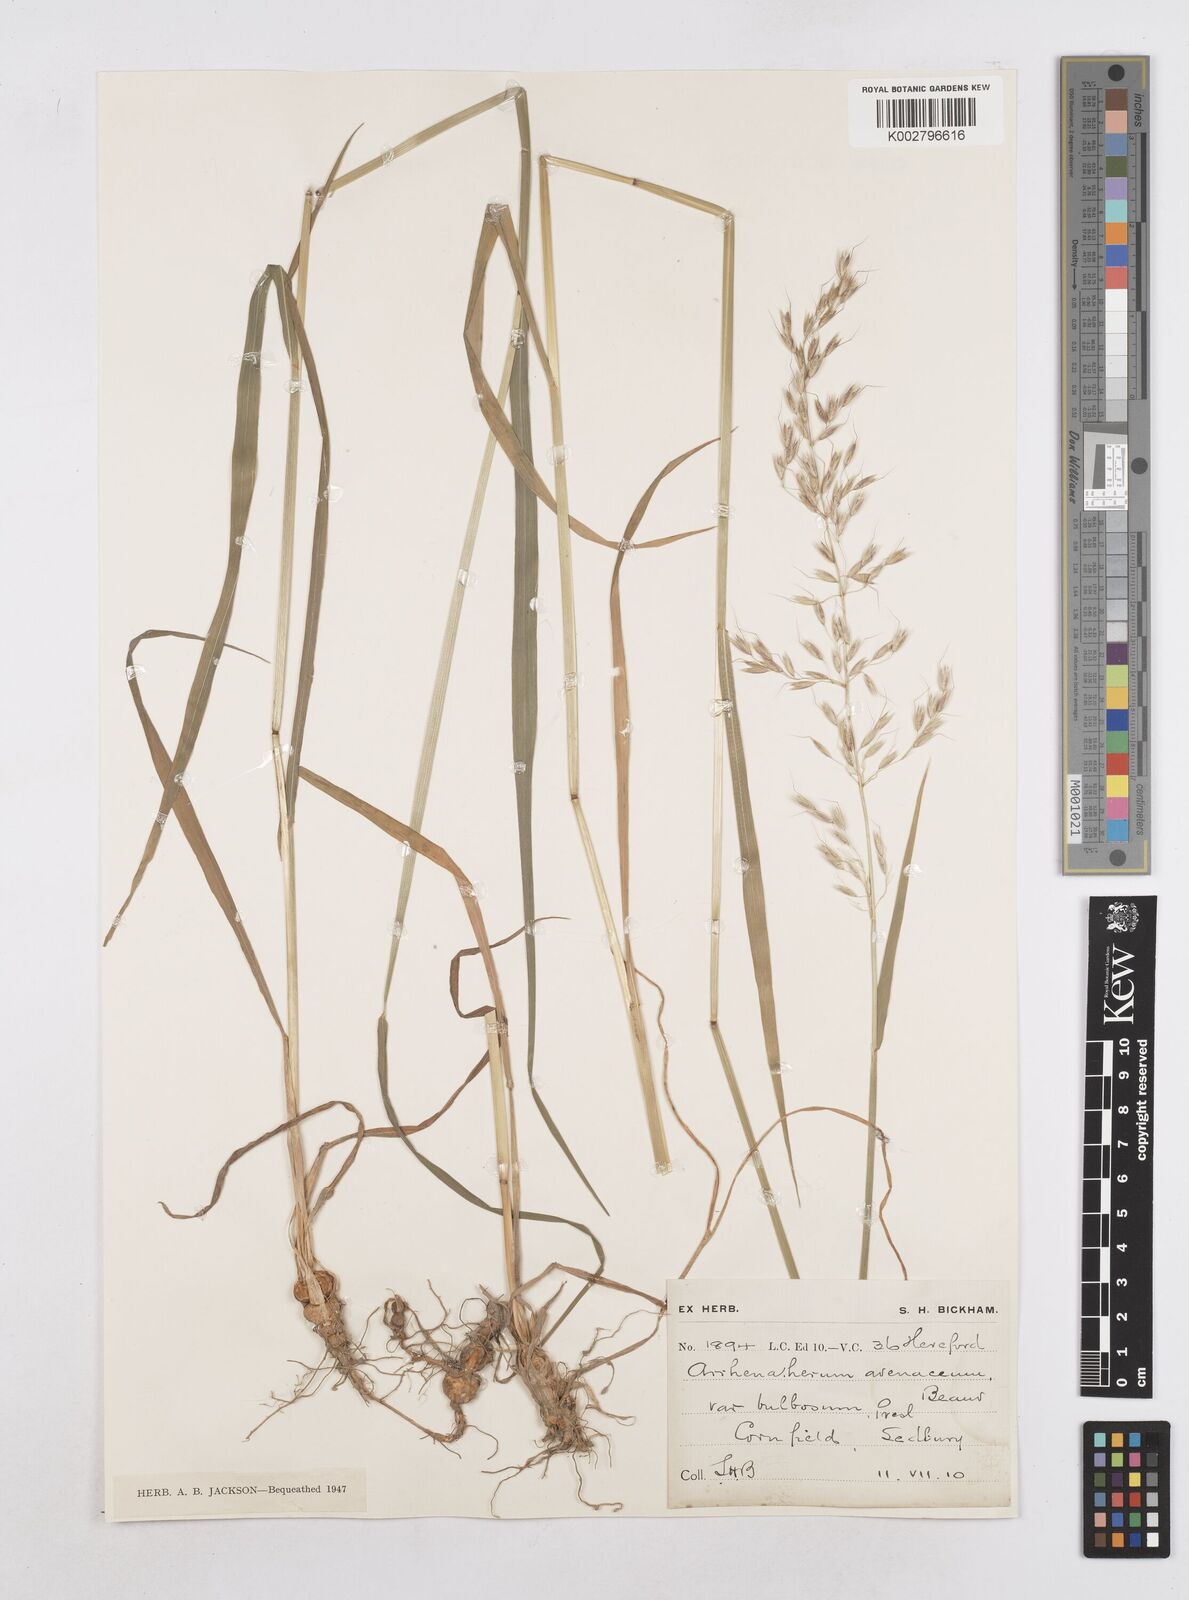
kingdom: Plantae
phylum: Tracheophyta
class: Liliopsida
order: Poales
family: Poaceae
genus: Arrhenatherum
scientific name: Arrhenatherum elatius
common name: Tall oatgrass
